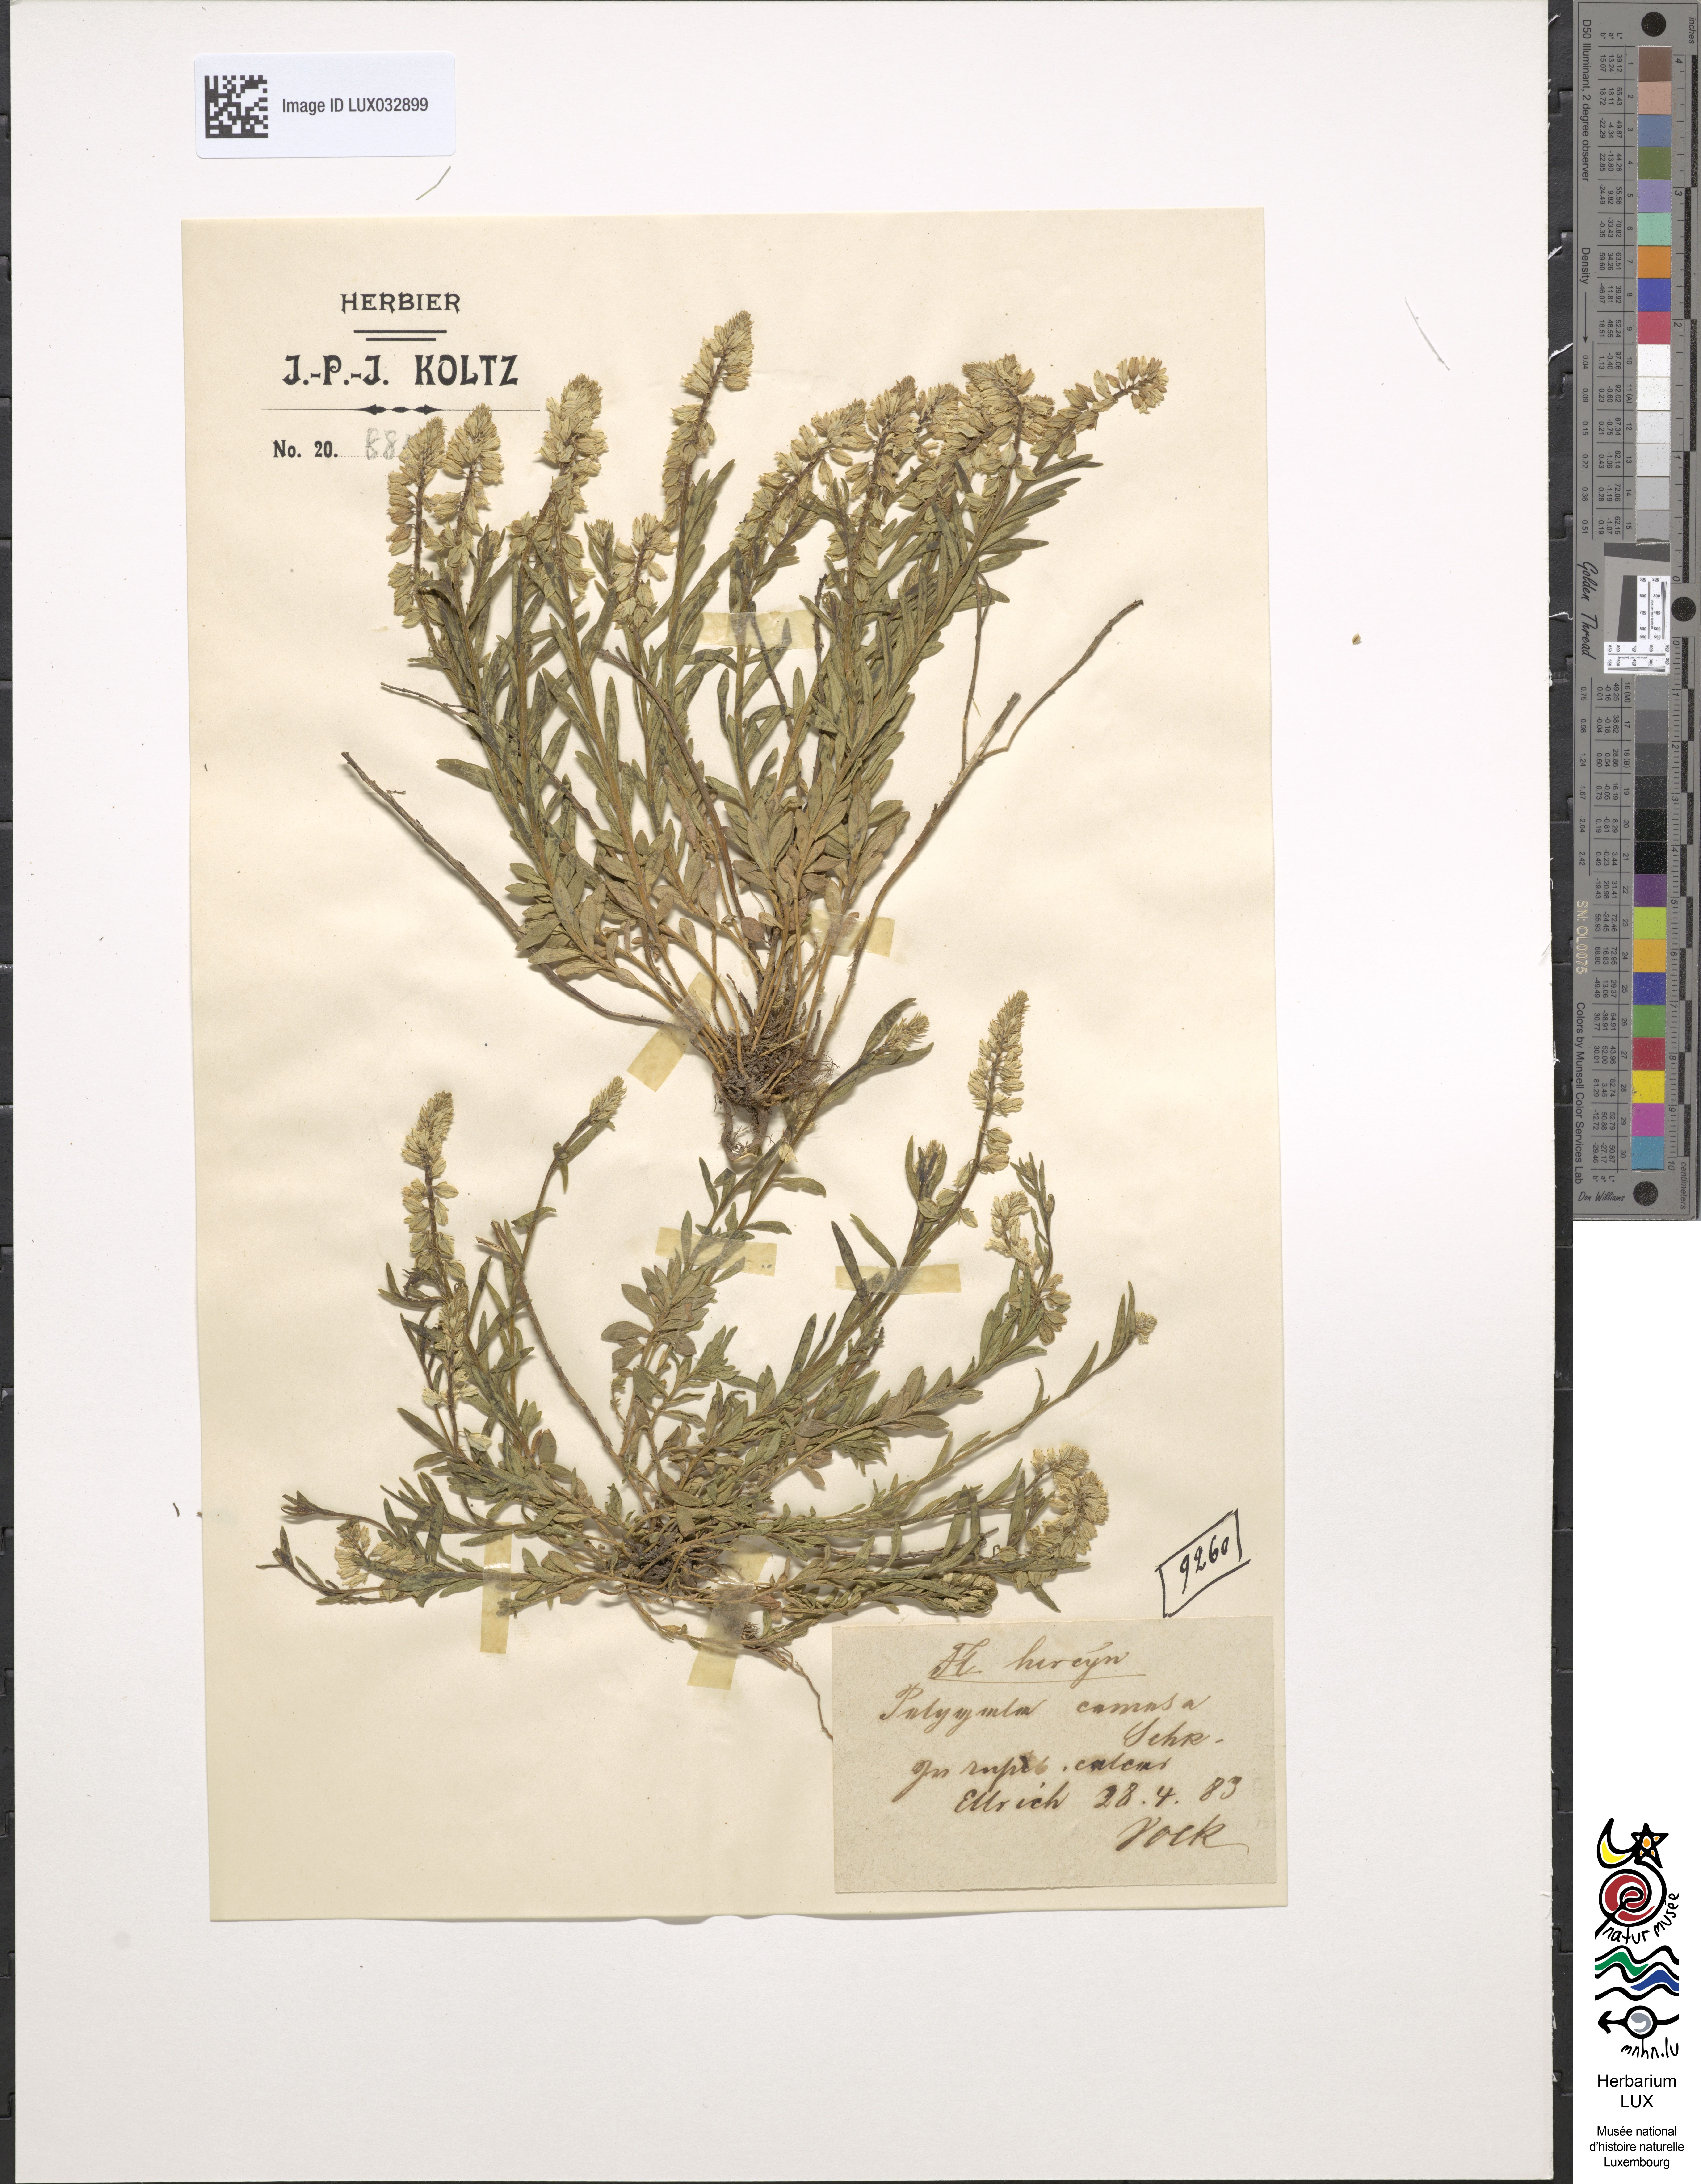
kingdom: Plantae
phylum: Tracheophyta
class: Magnoliopsida
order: Fabales
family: Polygalaceae
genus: Polygala
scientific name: Polygala comosa
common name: Tufted milkwort
